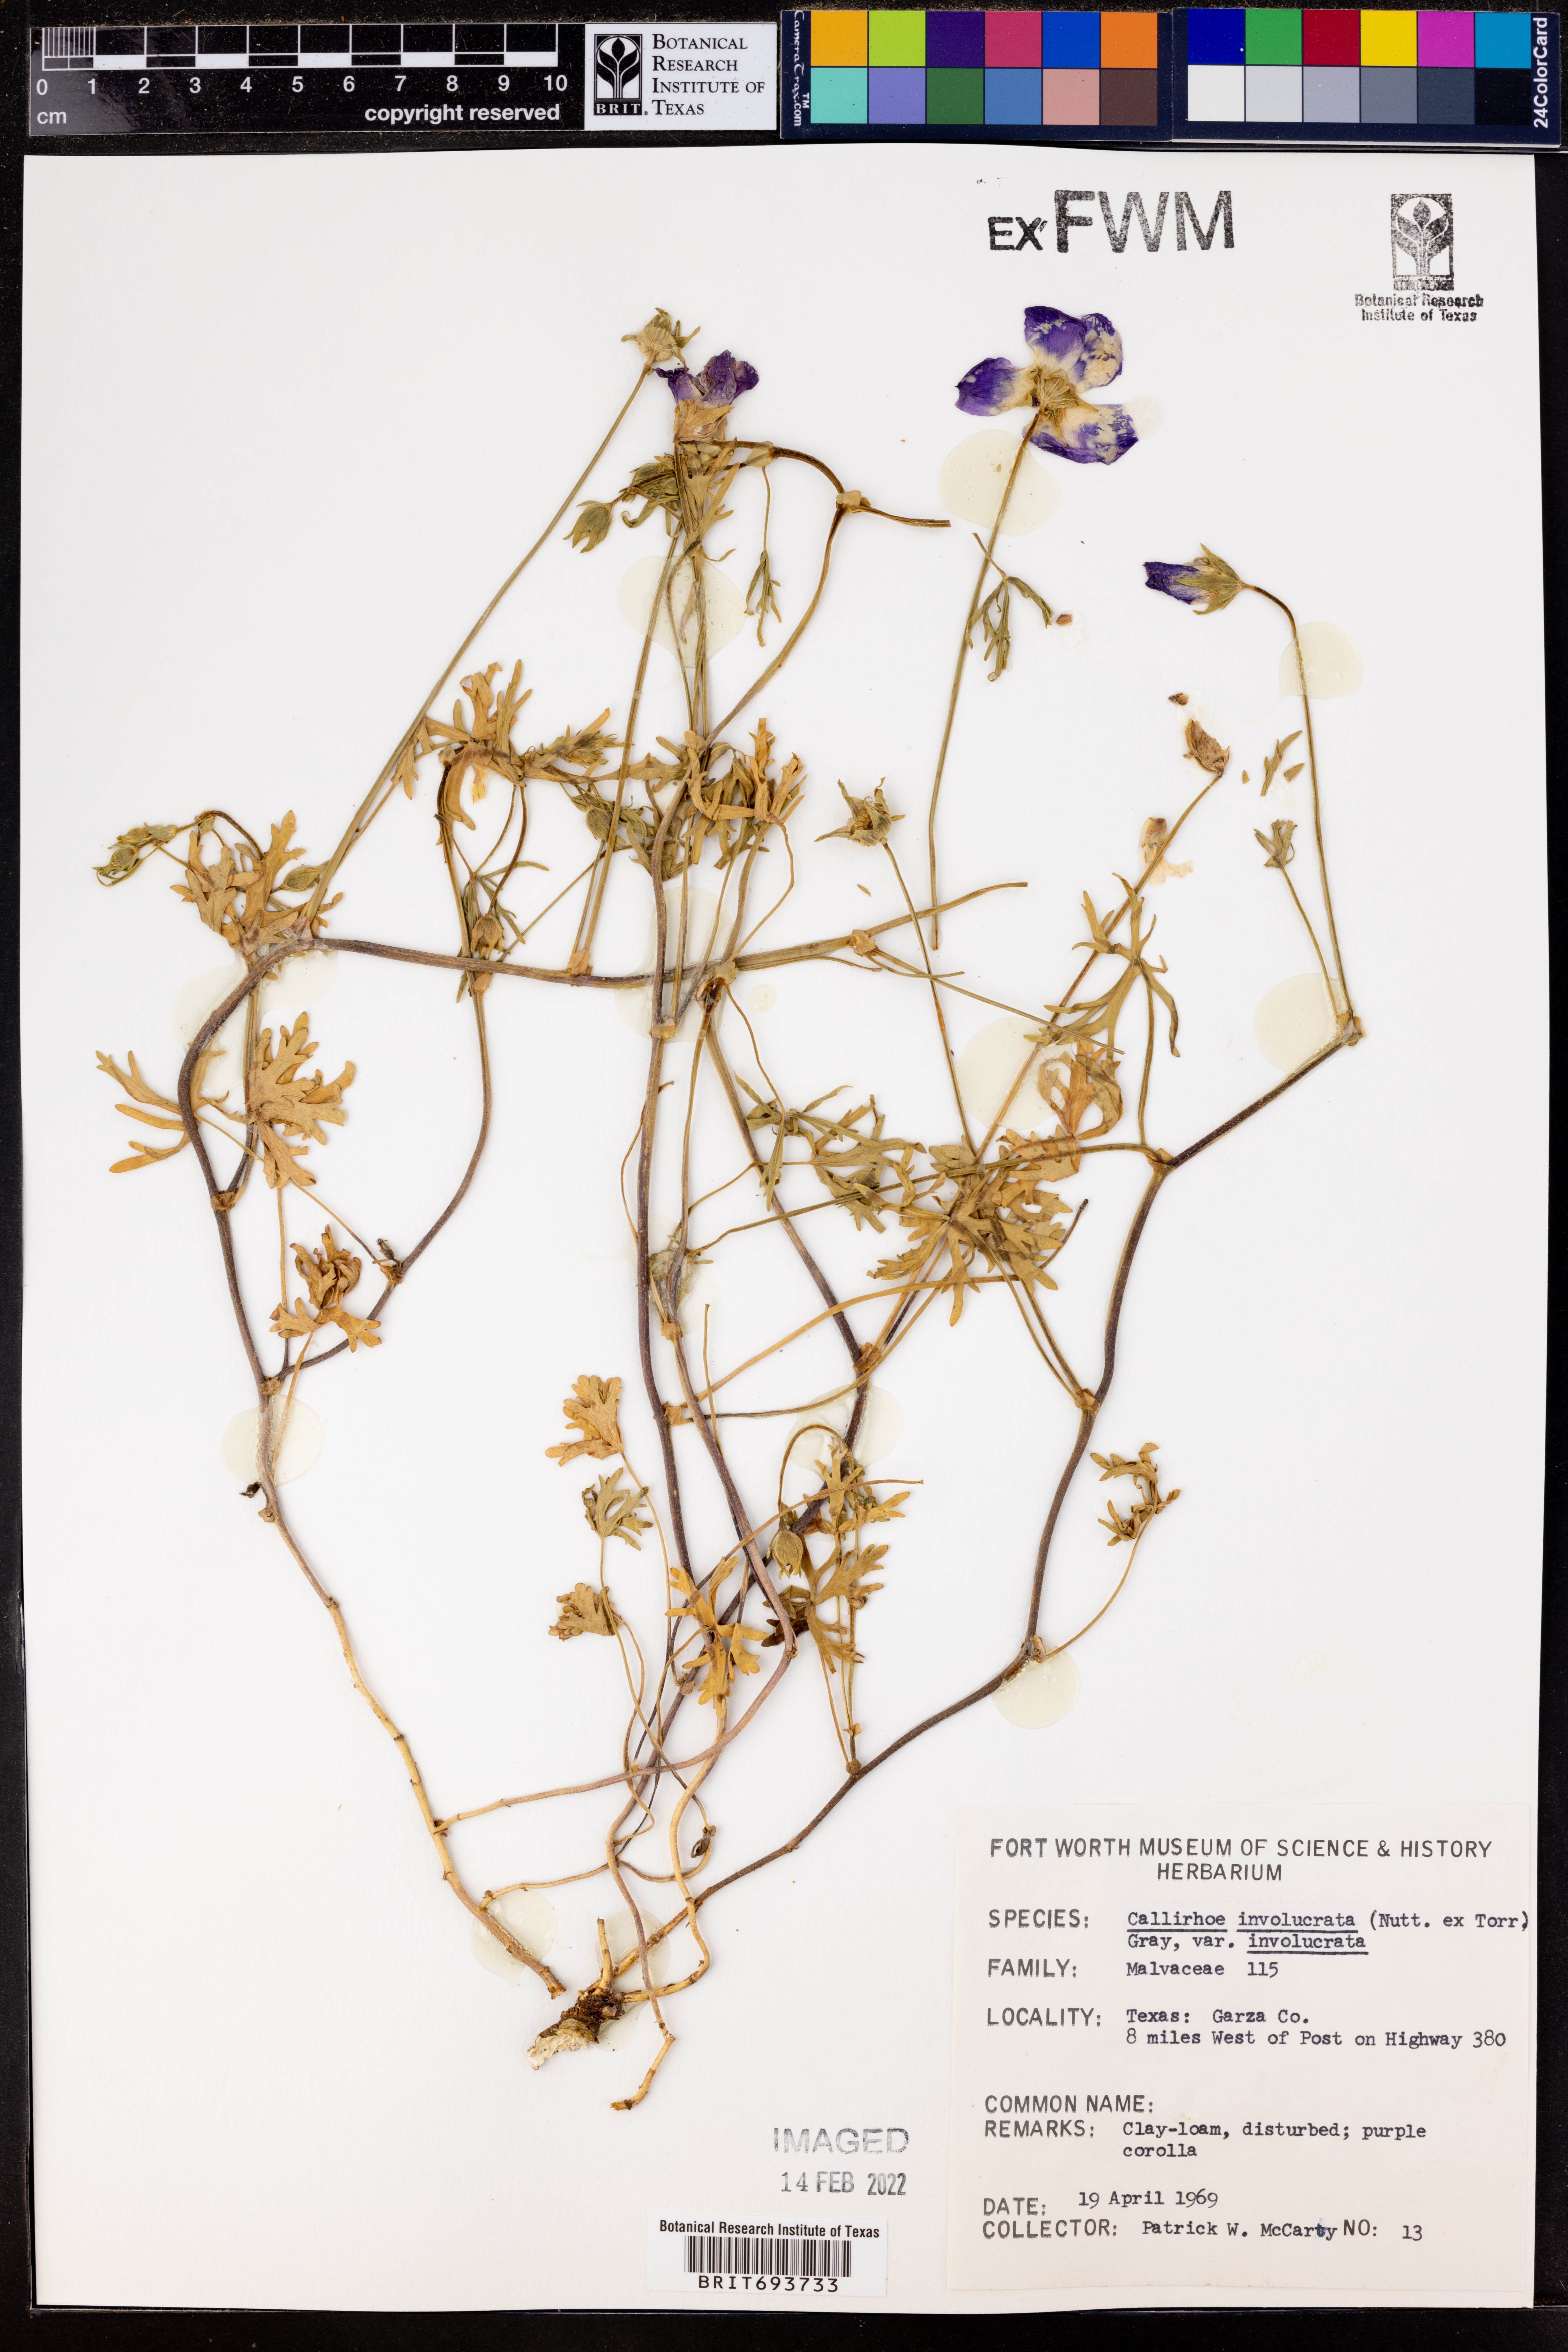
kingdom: Plantae
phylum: Tracheophyta
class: Magnoliopsida
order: Malvales
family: Malvaceae
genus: Callirhoe
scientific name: Callirhoe involucrata
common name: Purple poppy-mallow
